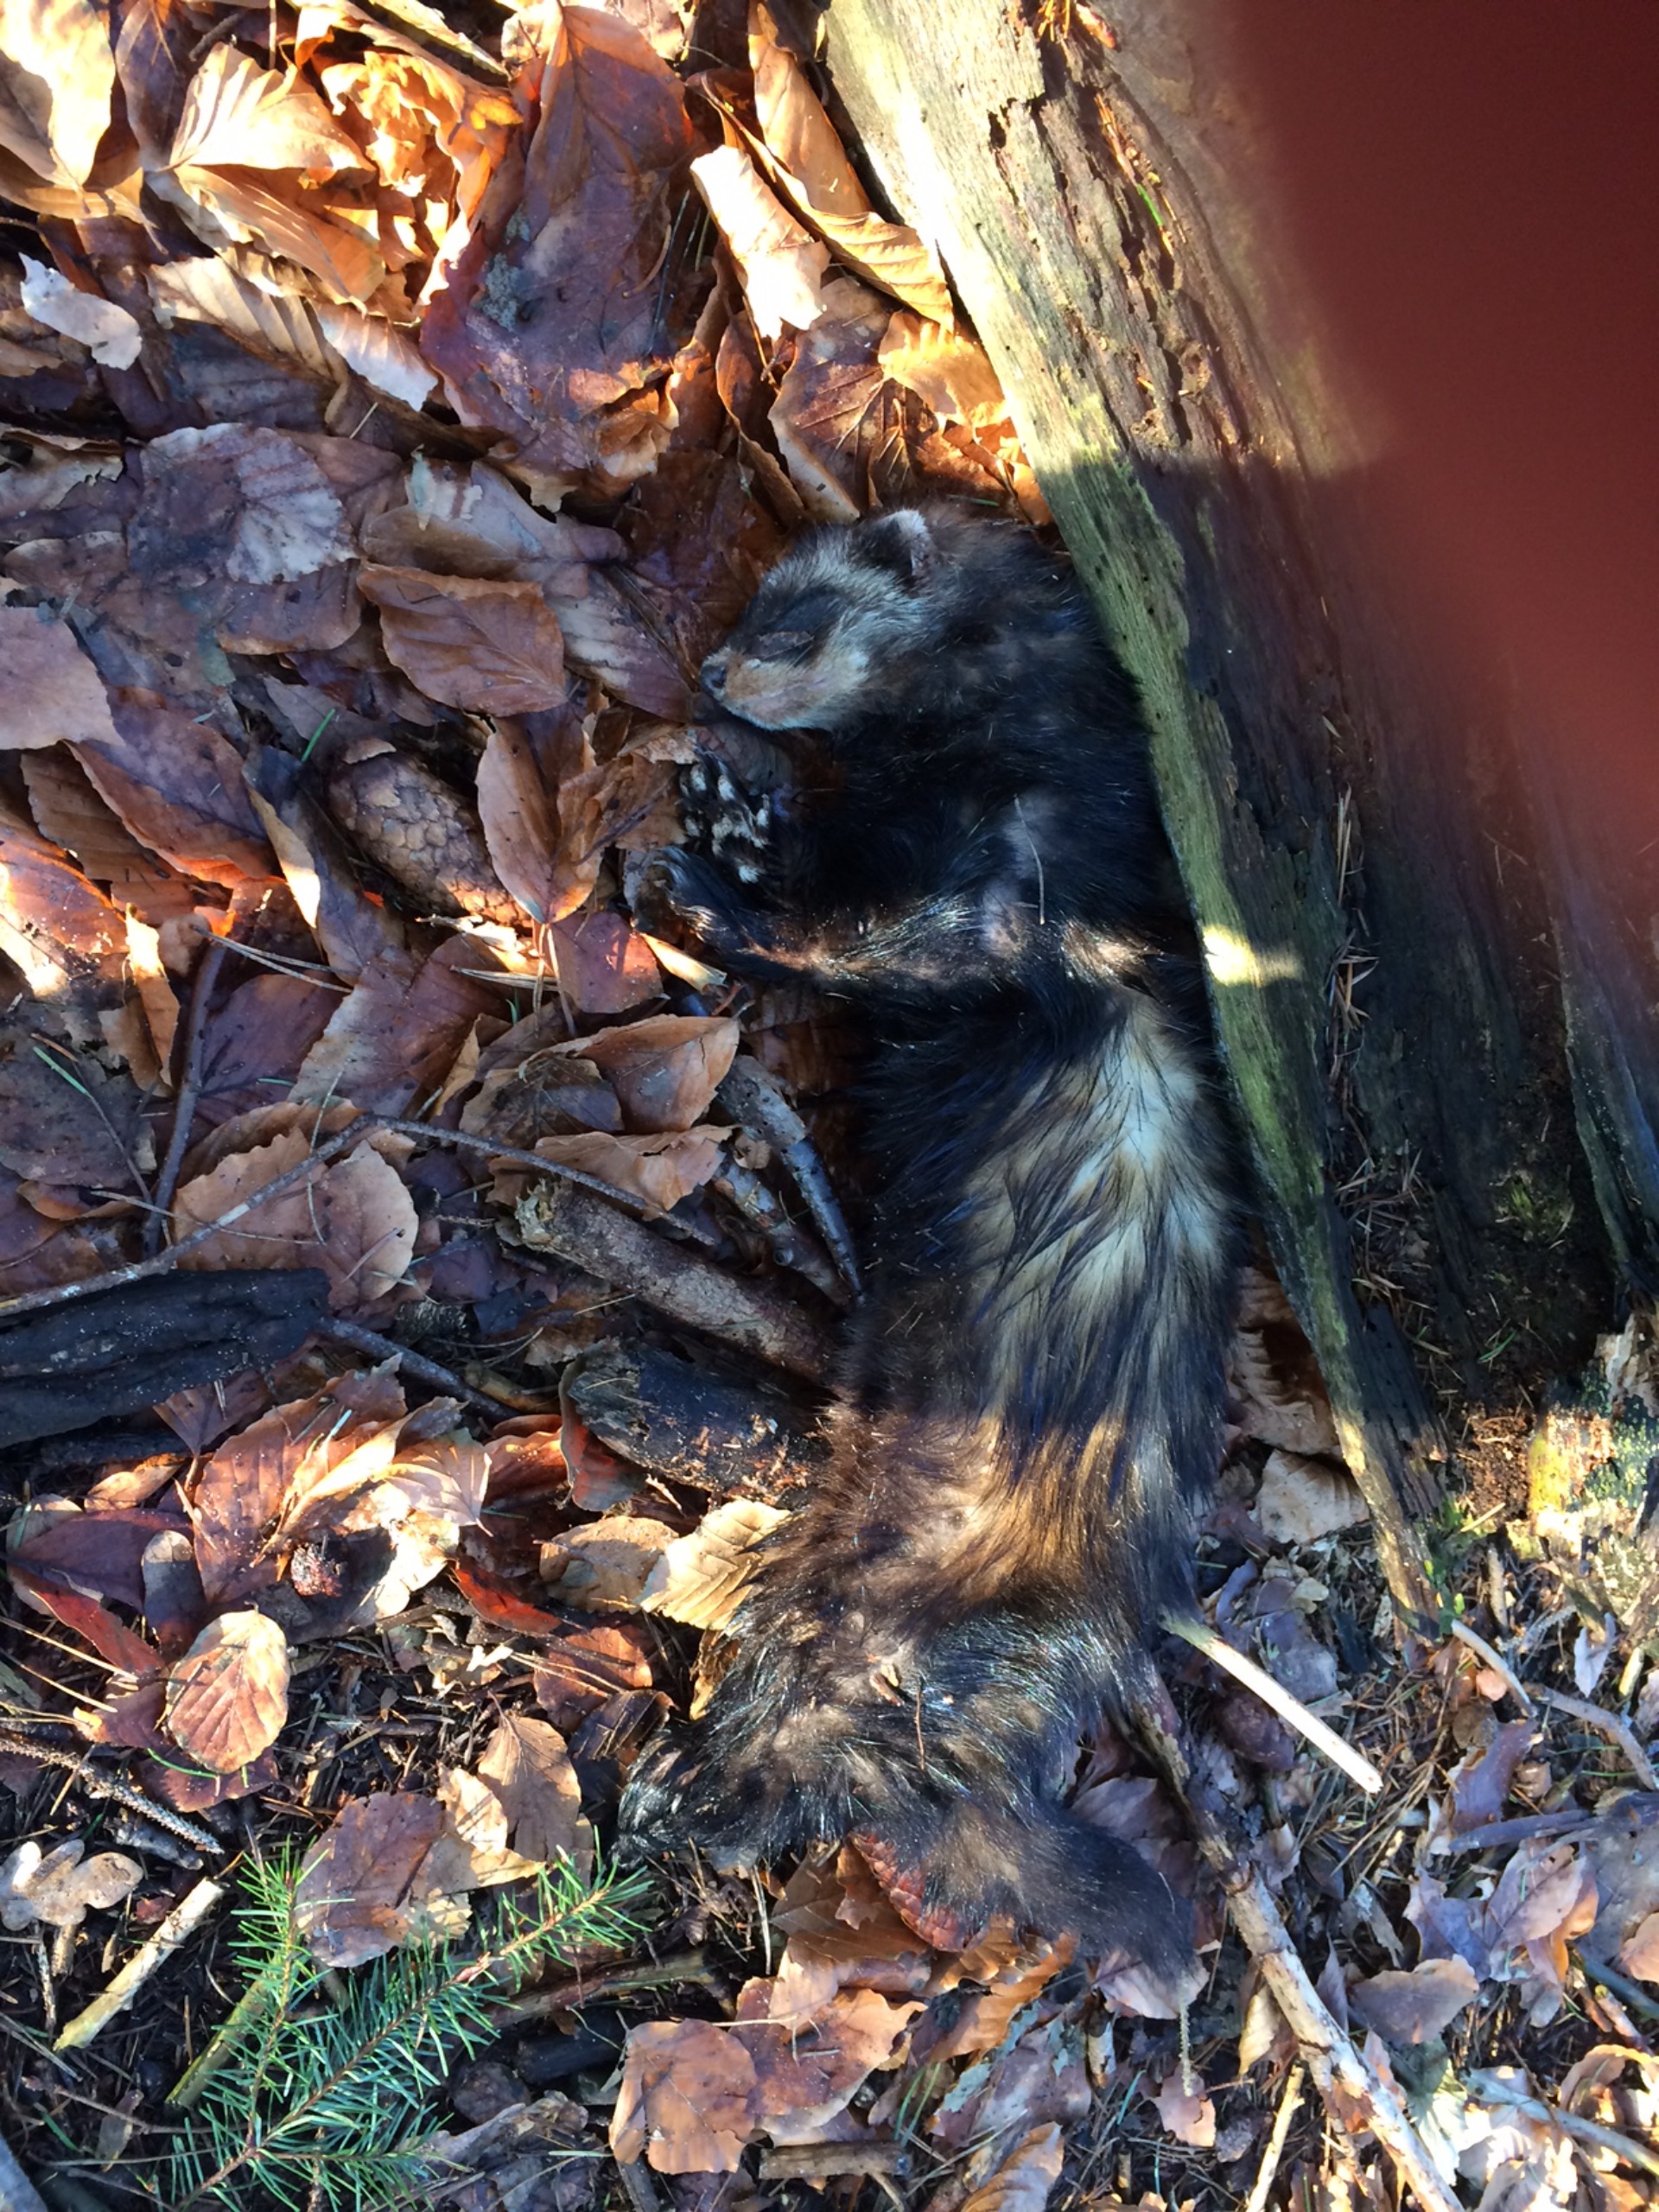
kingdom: Animalia
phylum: Chordata
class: Mammalia
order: Carnivora
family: Mustelidae
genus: Mustela
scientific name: Mustela putorius
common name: Ilder
